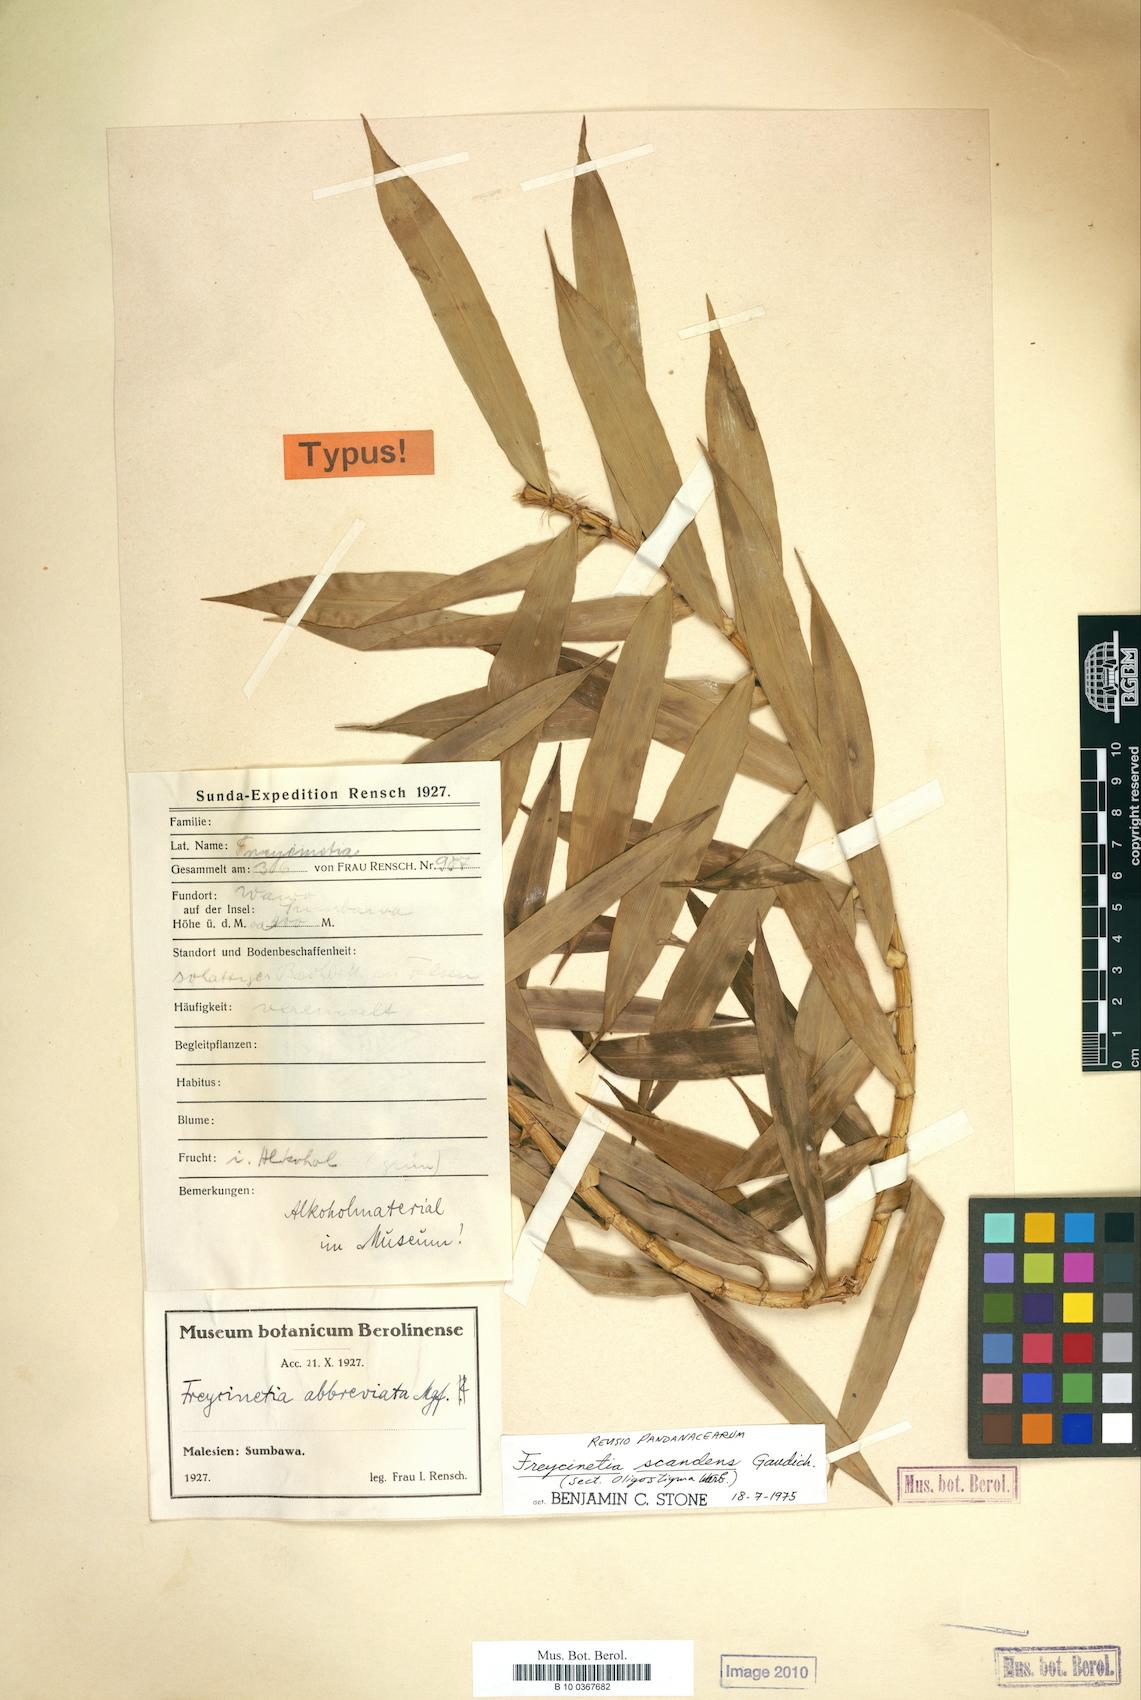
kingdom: Plantae
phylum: Tracheophyta
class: Liliopsida
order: Pandanales
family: Pandanaceae
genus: Freycinetia
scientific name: Freycinetia scandens
